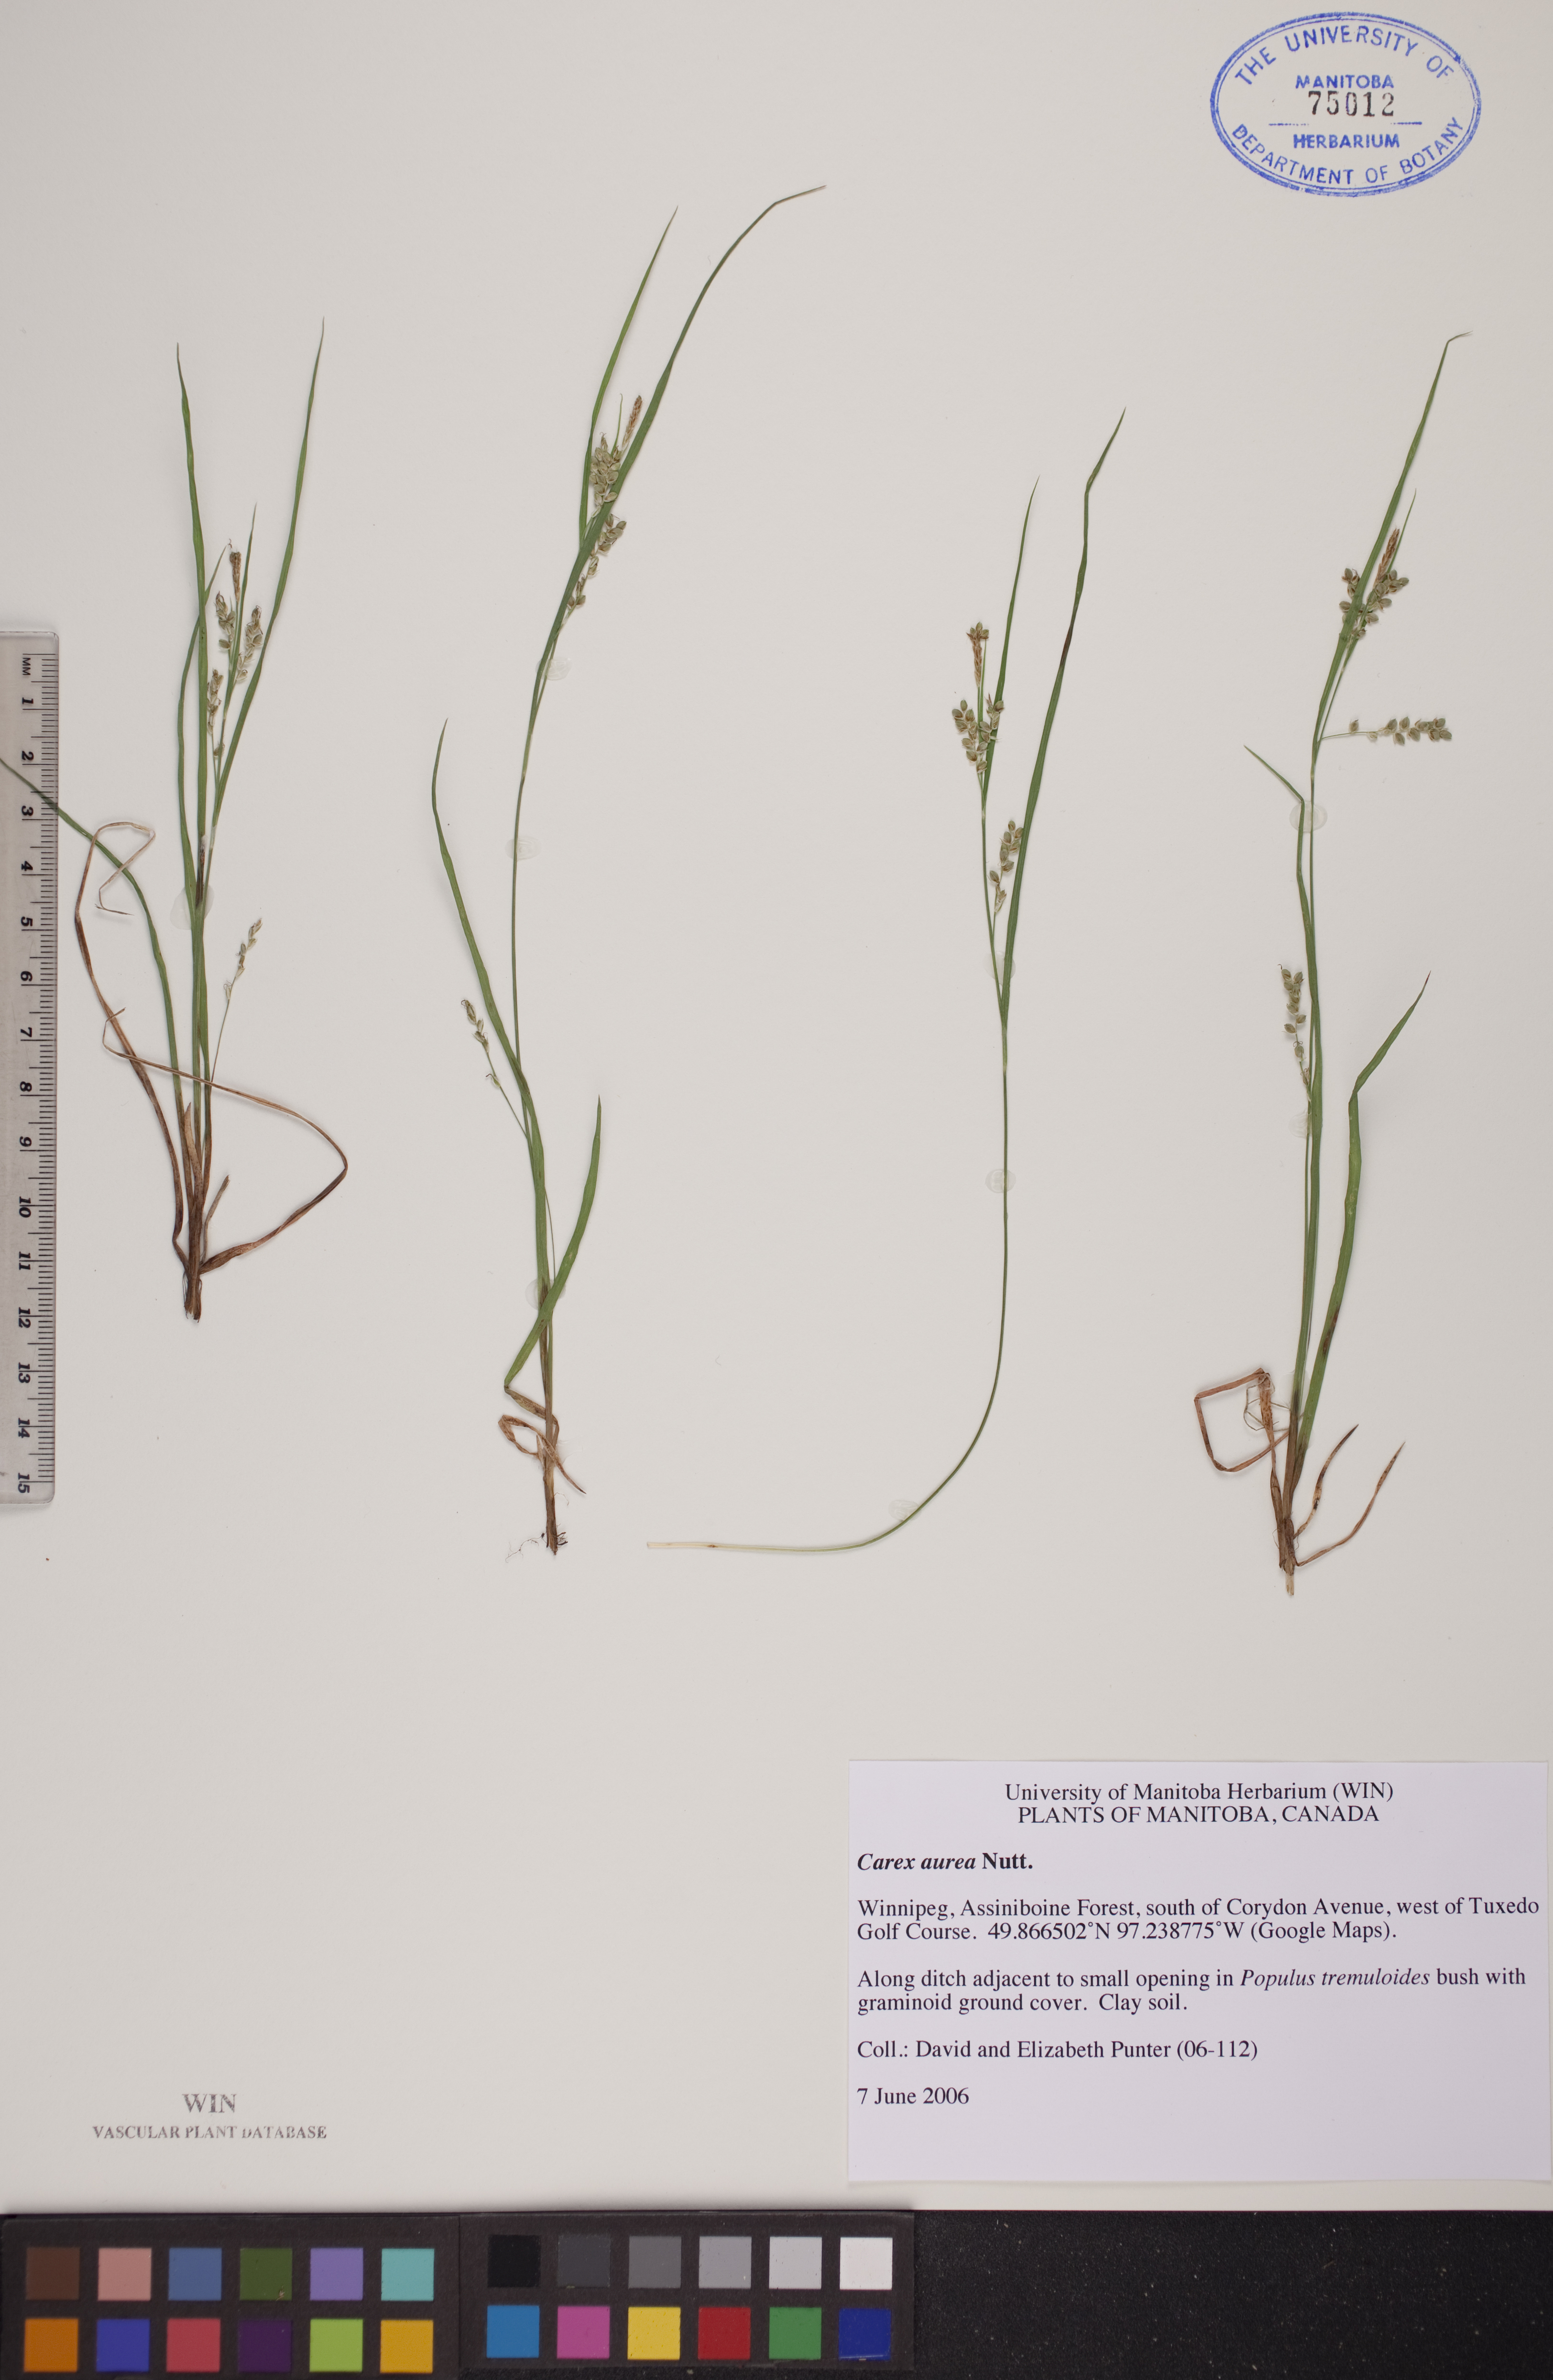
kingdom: Plantae
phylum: Tracheophyta
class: Liliopsida
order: Poales
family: Cyperaceae
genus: Carex
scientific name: Carex aurea
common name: Golden sedge
